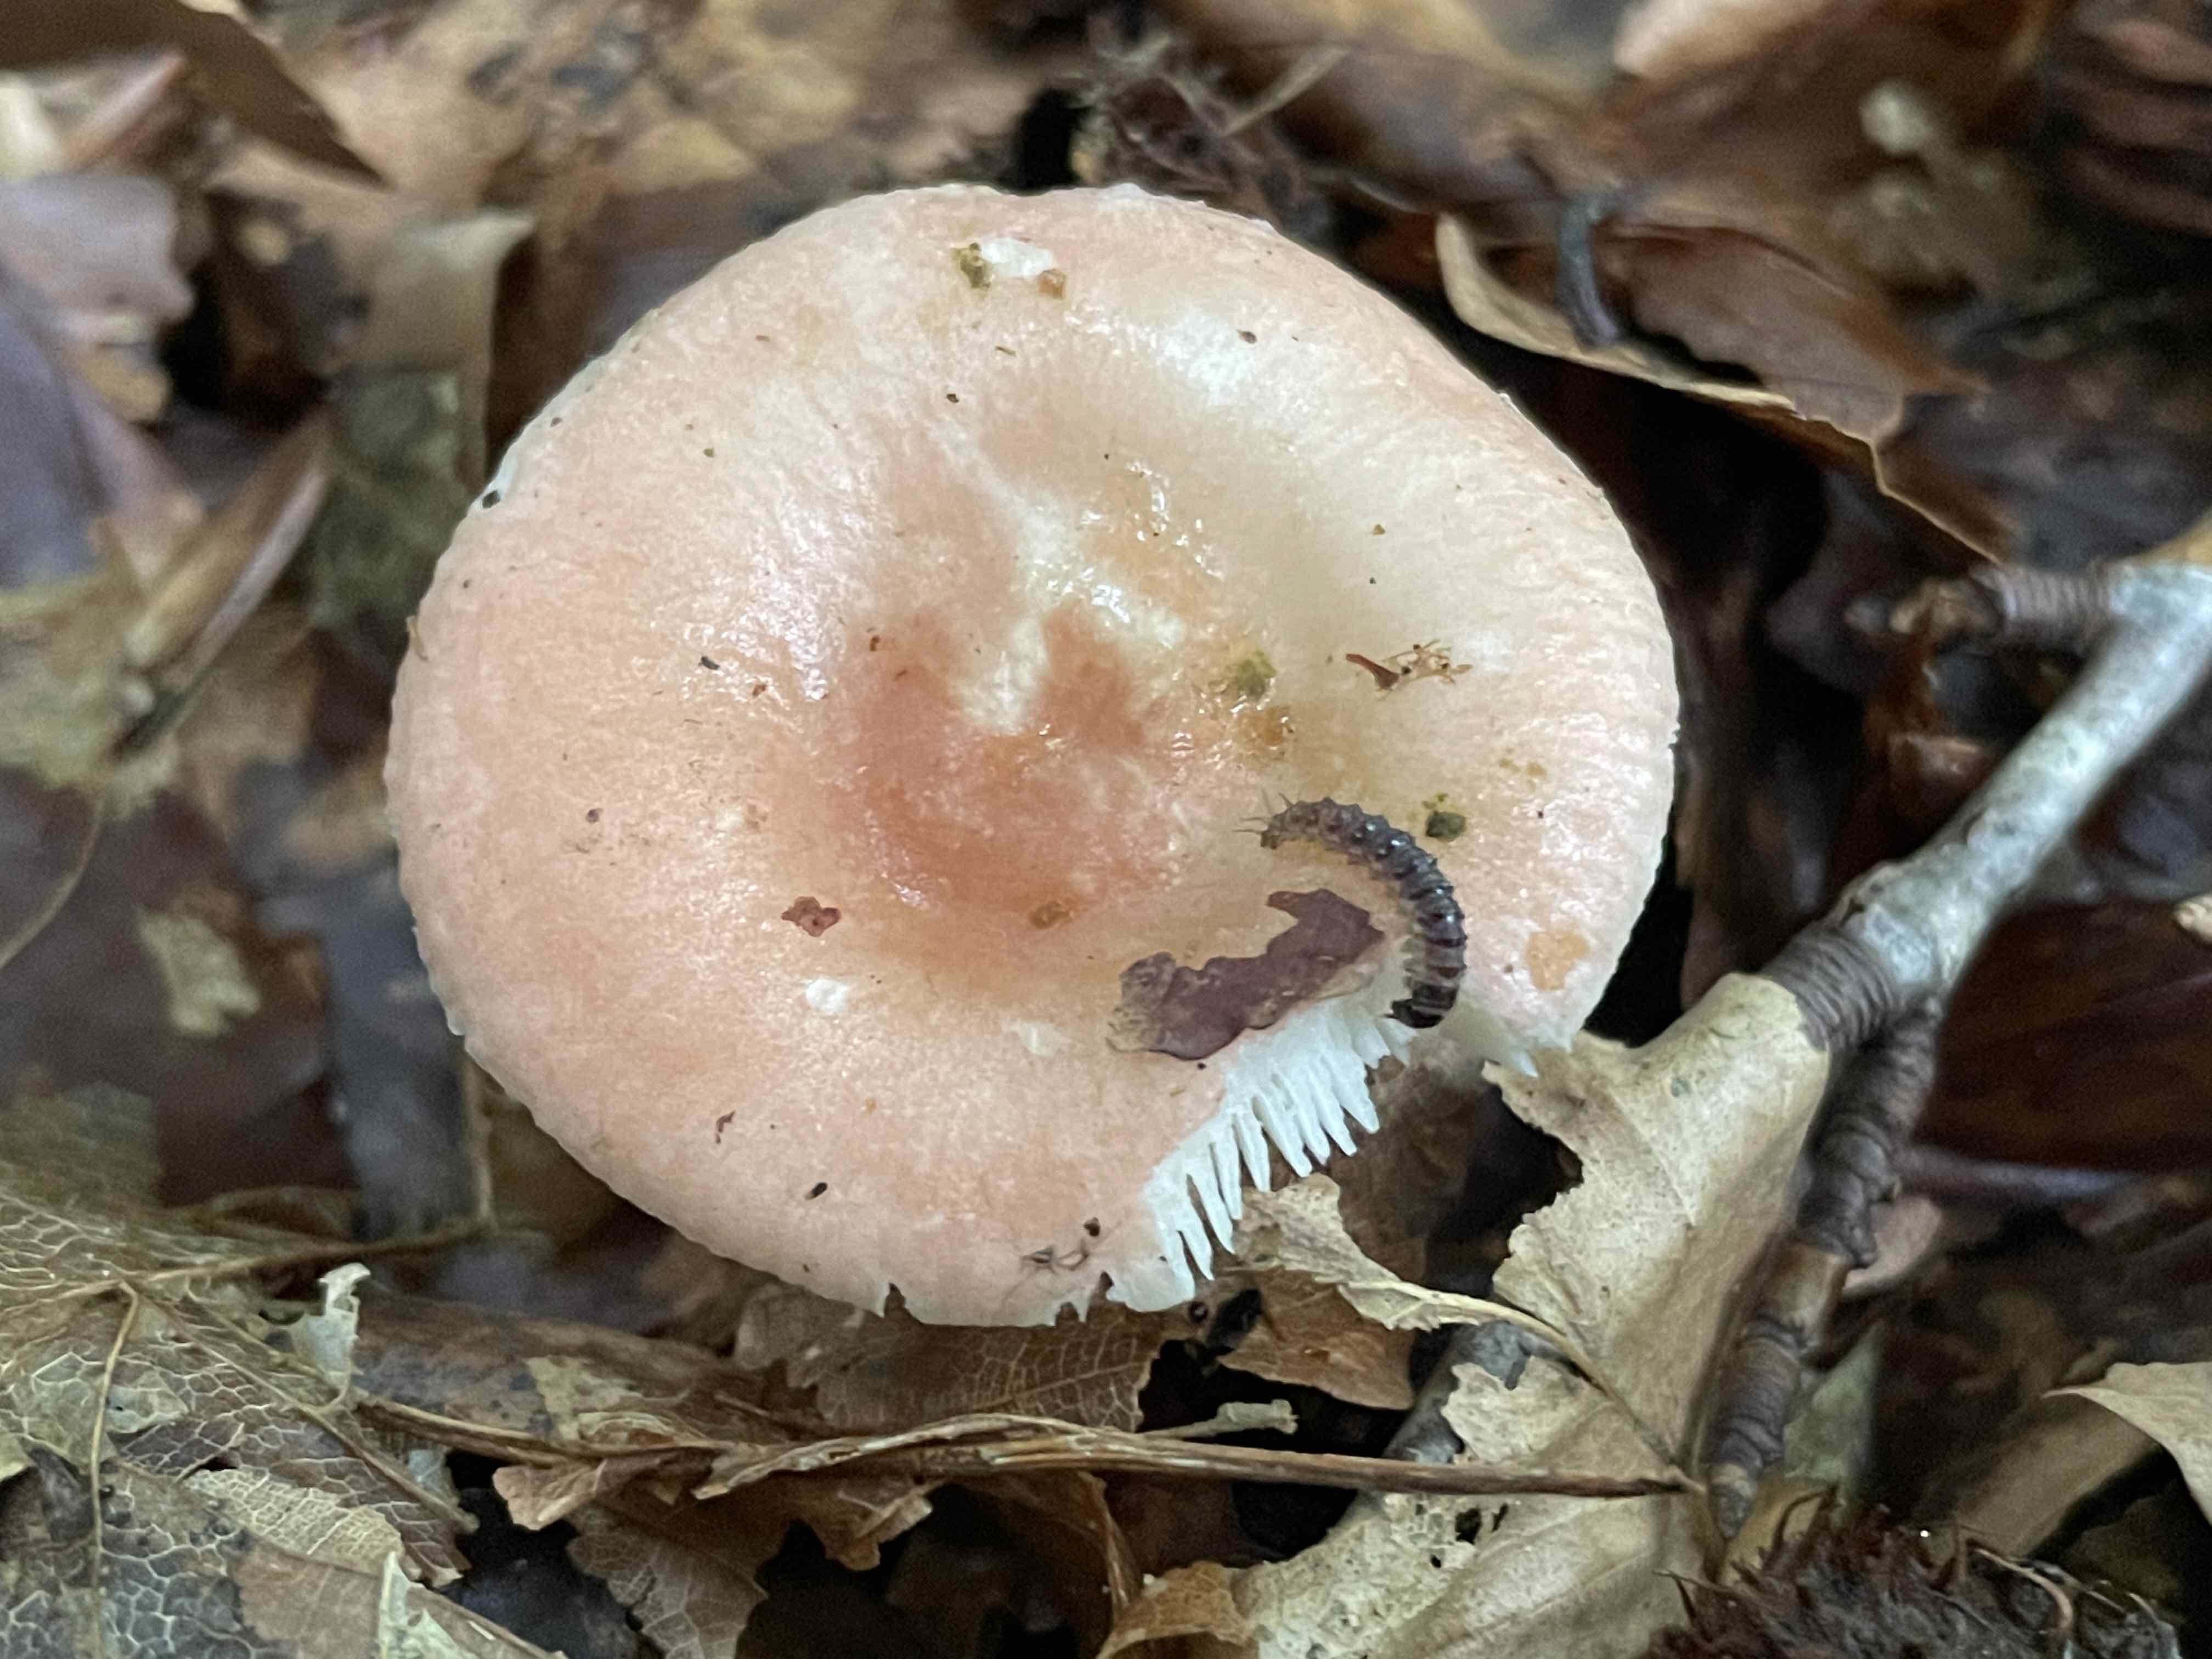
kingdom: Fungi
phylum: Basidiomycota
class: Agaricomycetes
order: Russulales
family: Russulaceae
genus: Russula
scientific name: Russula
